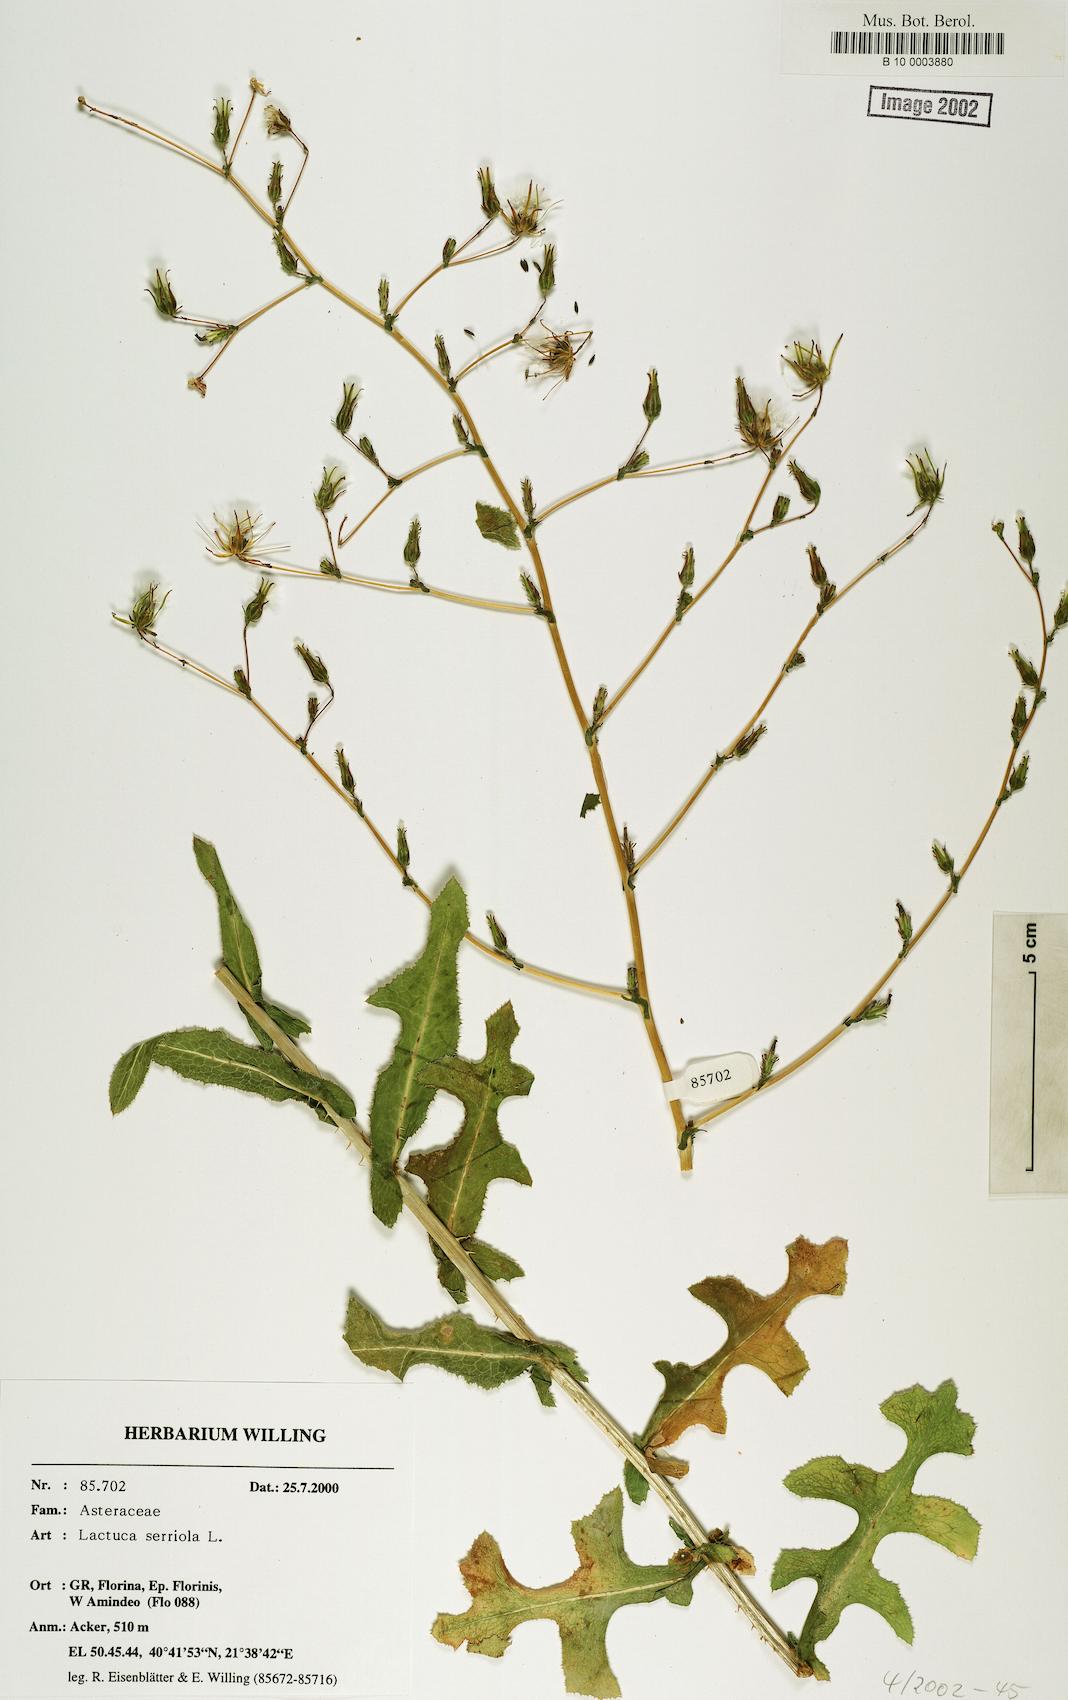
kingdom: Plantae
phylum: Tracheophyta
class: Magnoliopsida
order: Asterales
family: Asteraceae
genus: Lactuca
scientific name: Lactuca serriola
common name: Prickly lettuce
